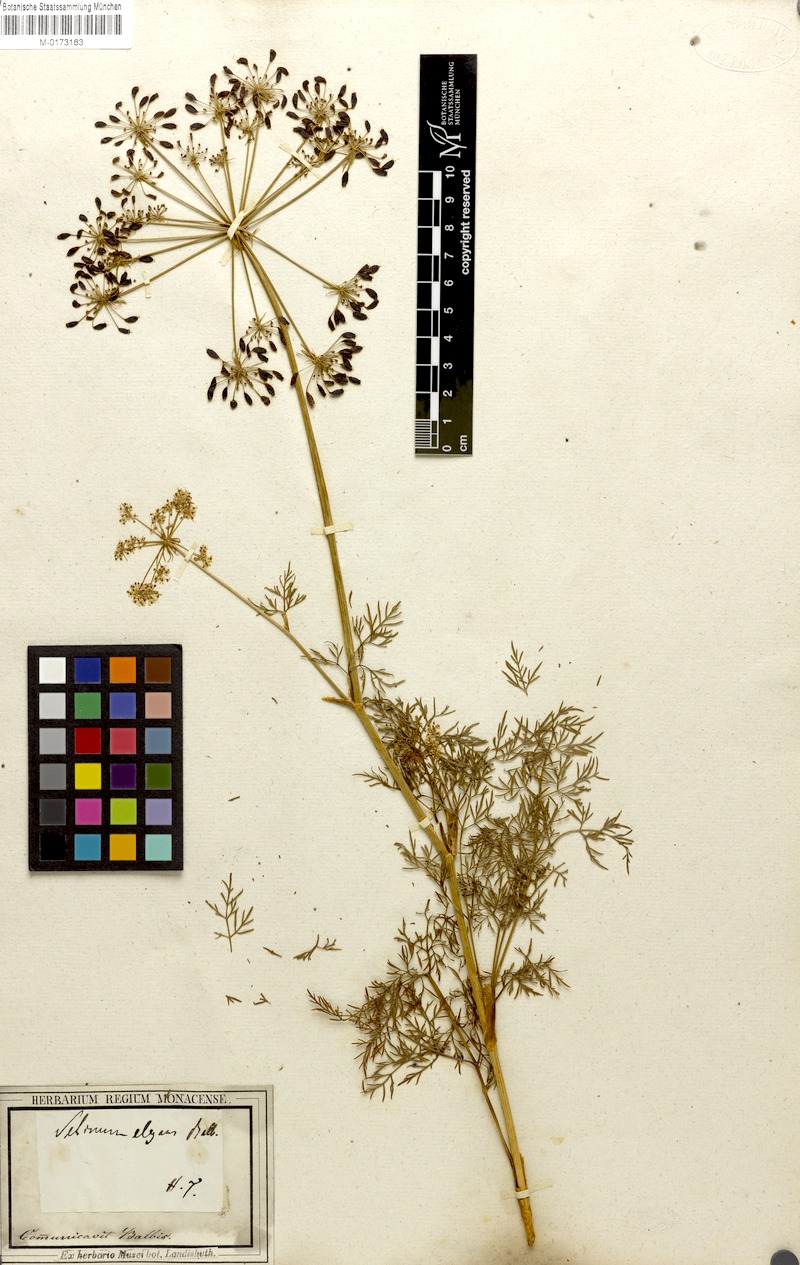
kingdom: Plantae
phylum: Tracheophyta
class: Magnoliopsida
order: Apiales
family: Apiaceae
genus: Peucedanum
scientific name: Peucedanum austriacum
